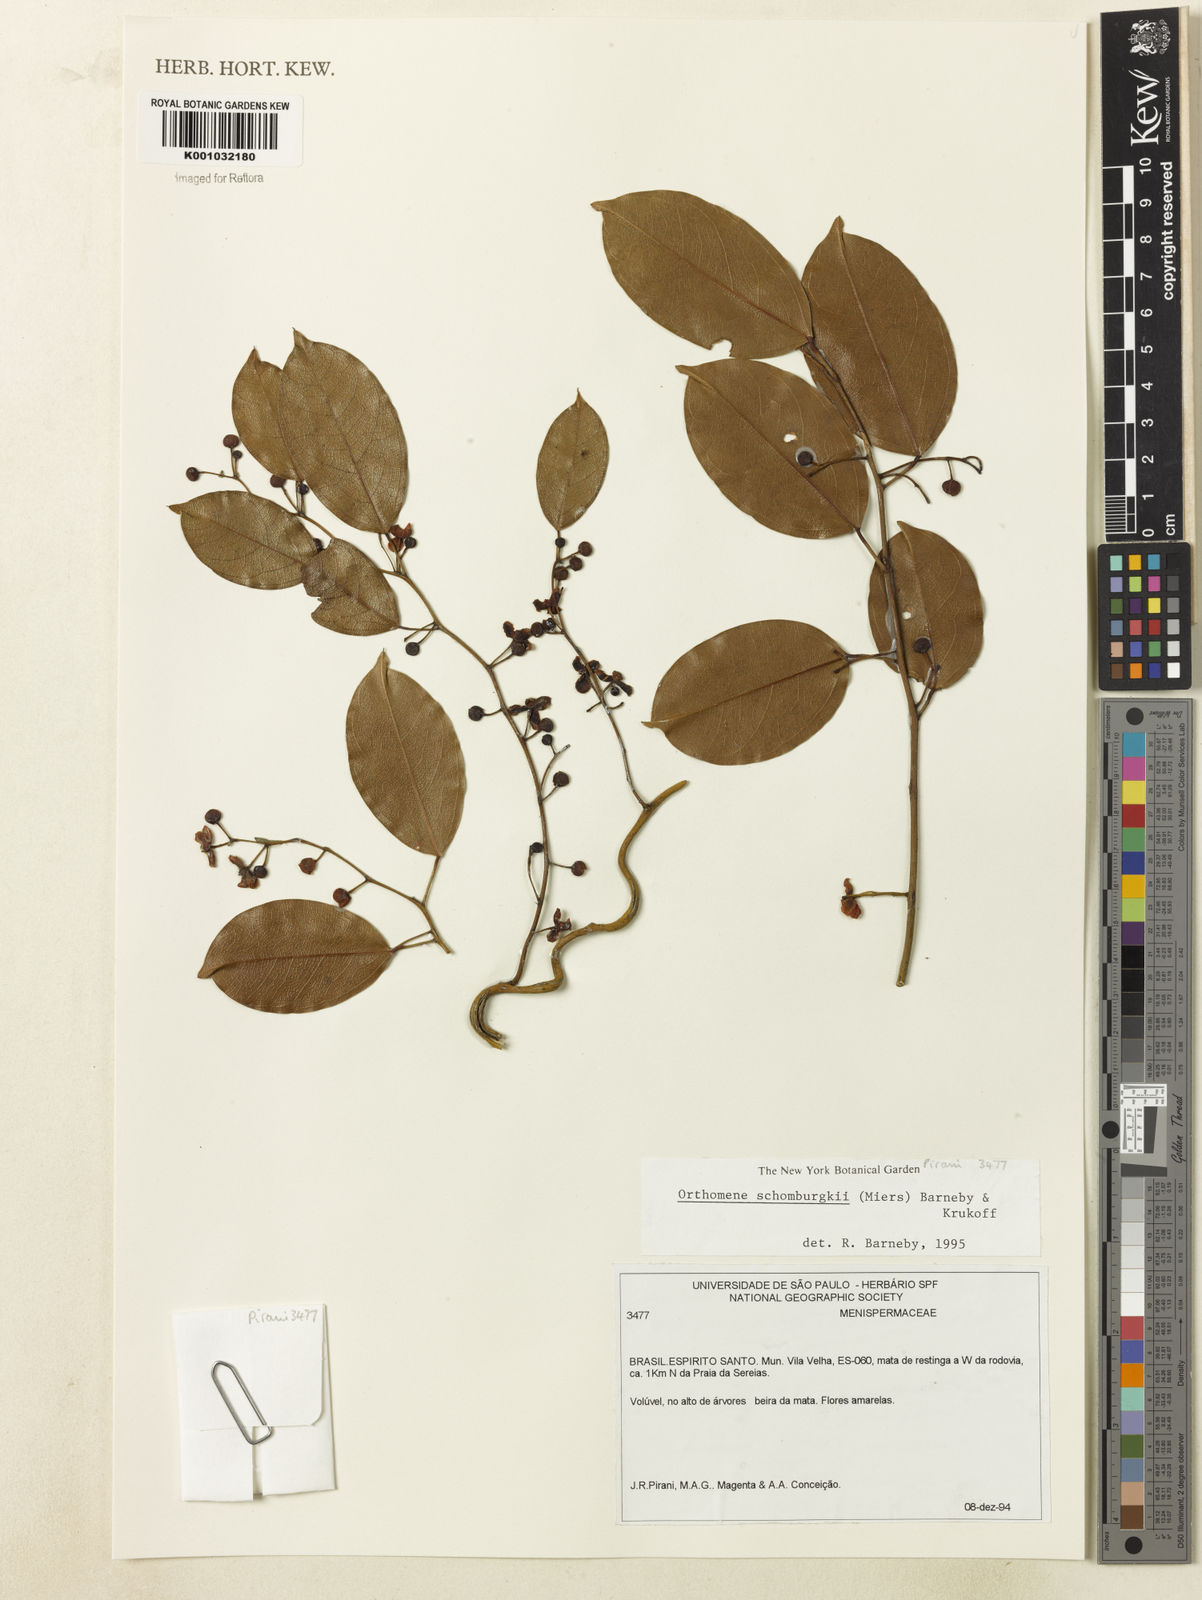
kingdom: Plantae
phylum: Tracheophyta
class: Magnoliopsida
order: Ranunculales
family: Menispermaceae
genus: Orthomene
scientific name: Orthomene schomburgkii
